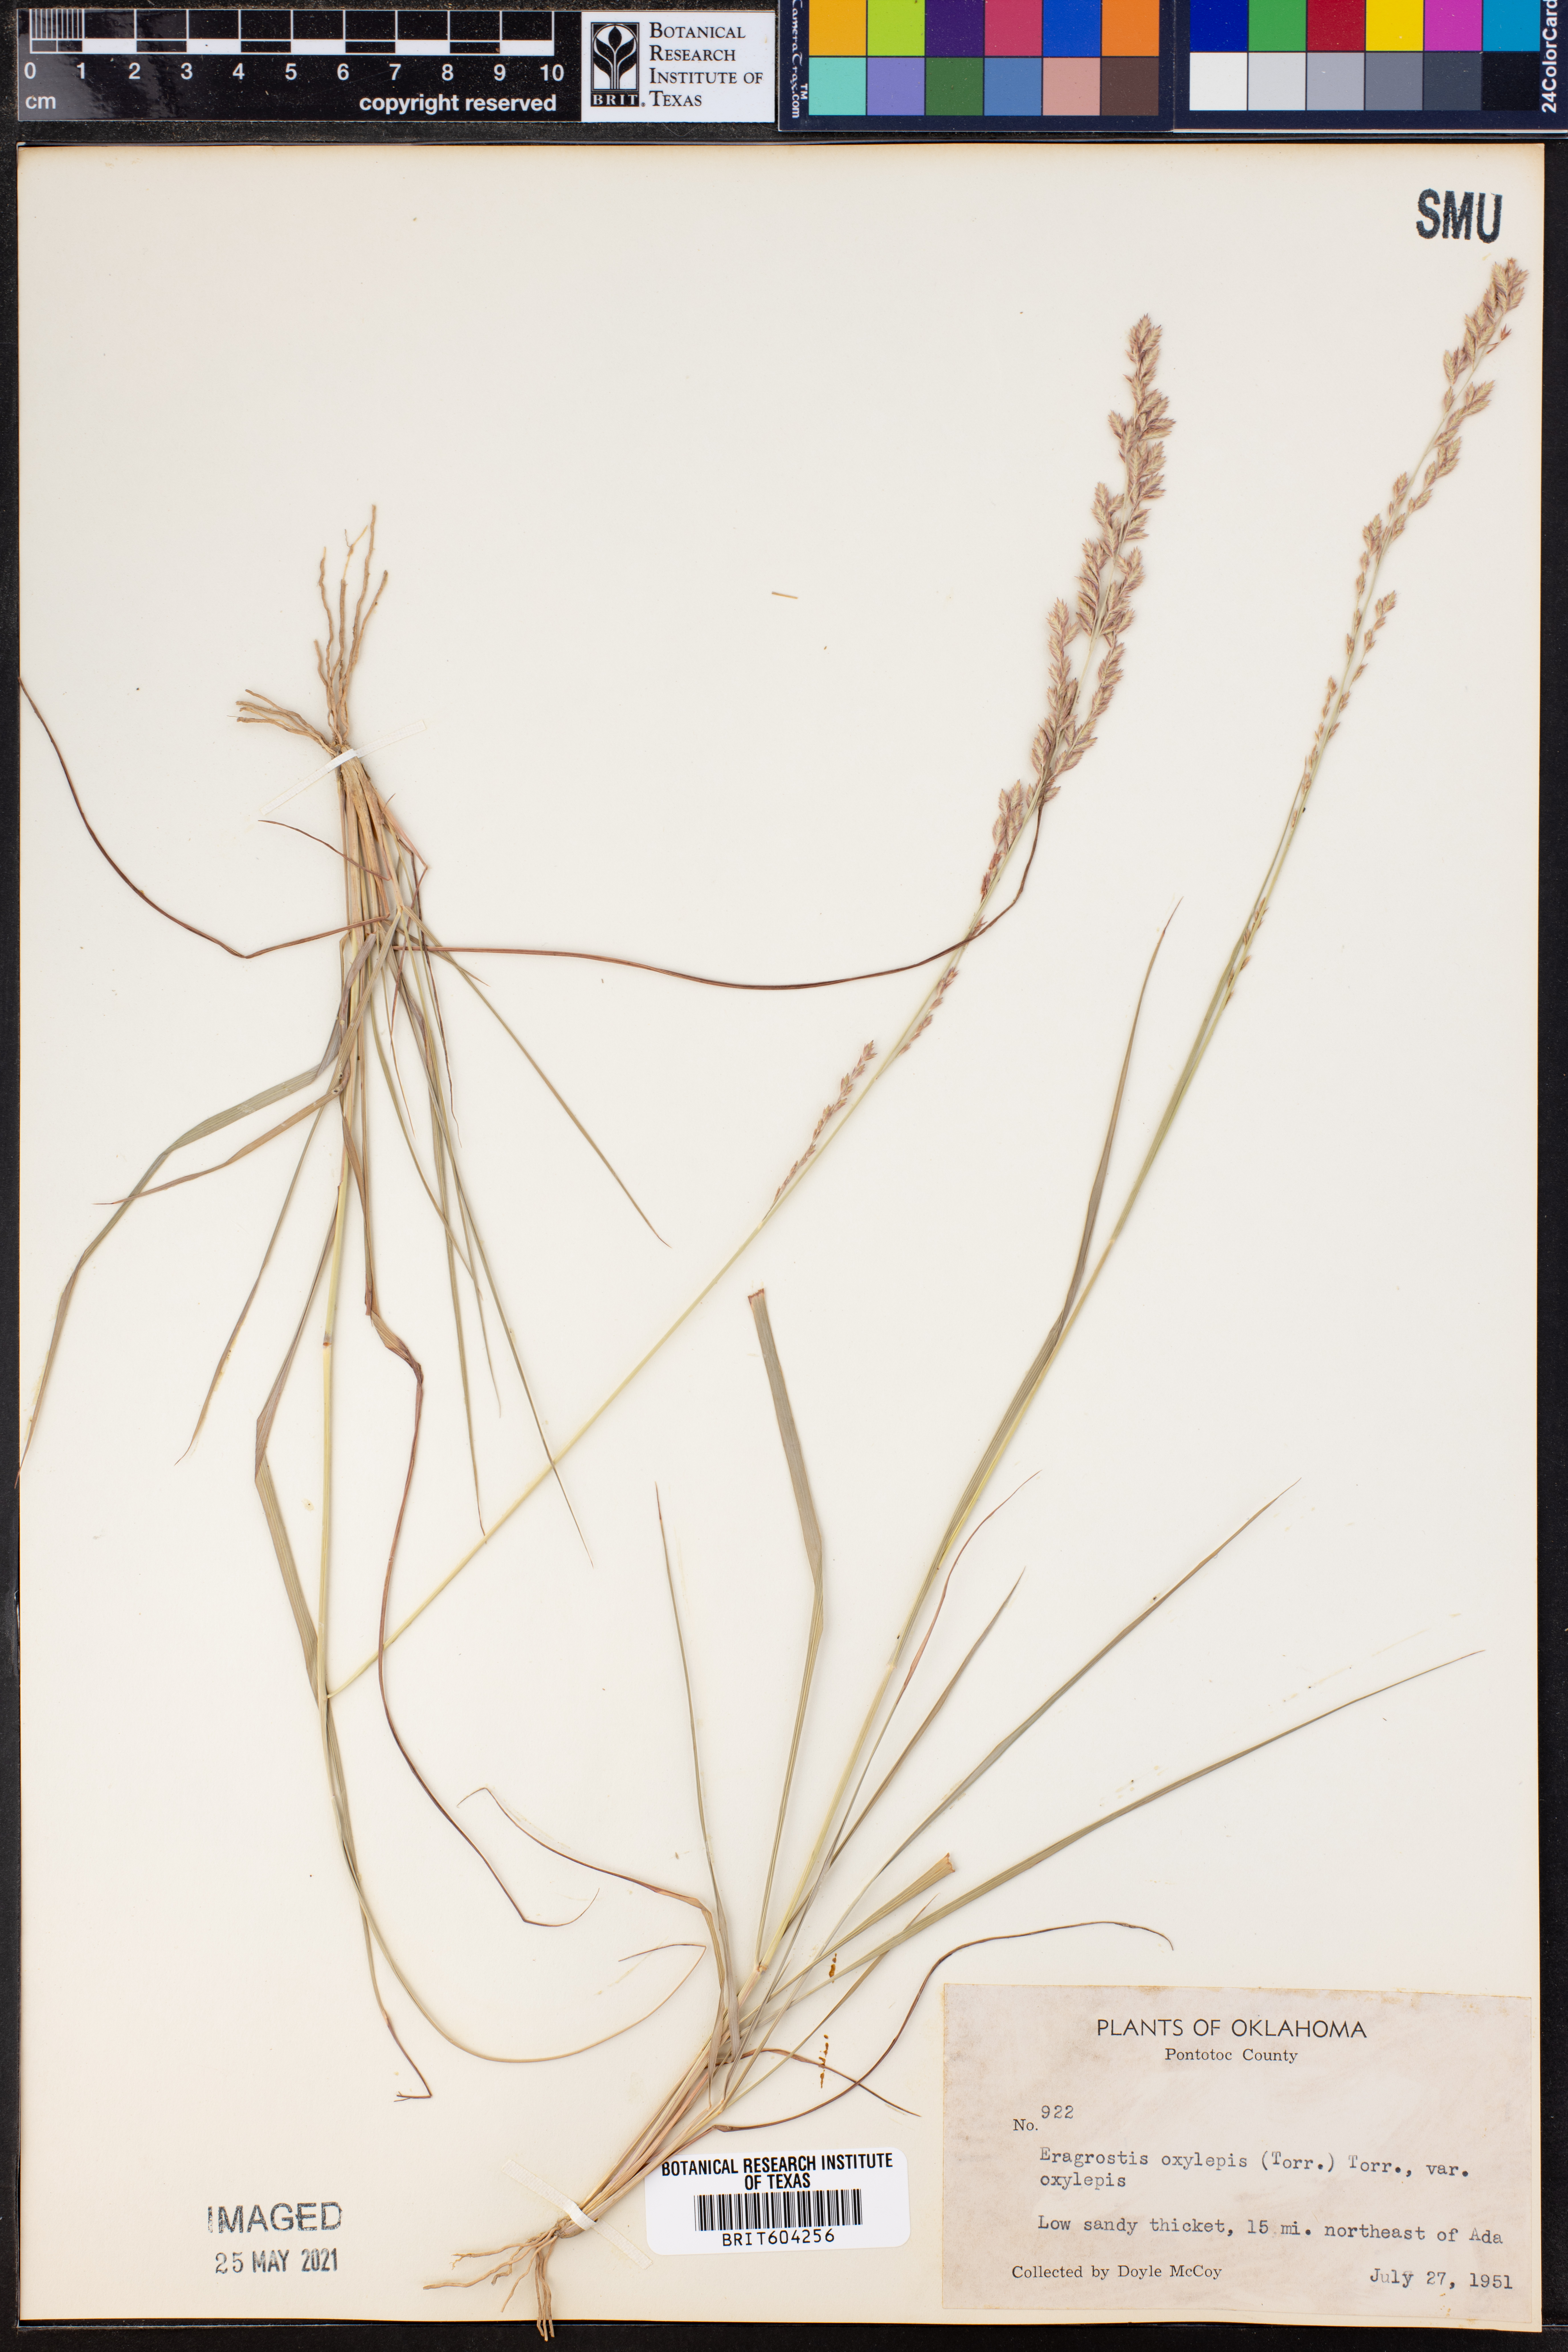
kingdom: Plantae
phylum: Tracheophyta
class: Liliopsida
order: Poales
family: Poaceae
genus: Eragrostis
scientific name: Eragrostis secundiflora
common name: Red love grass
